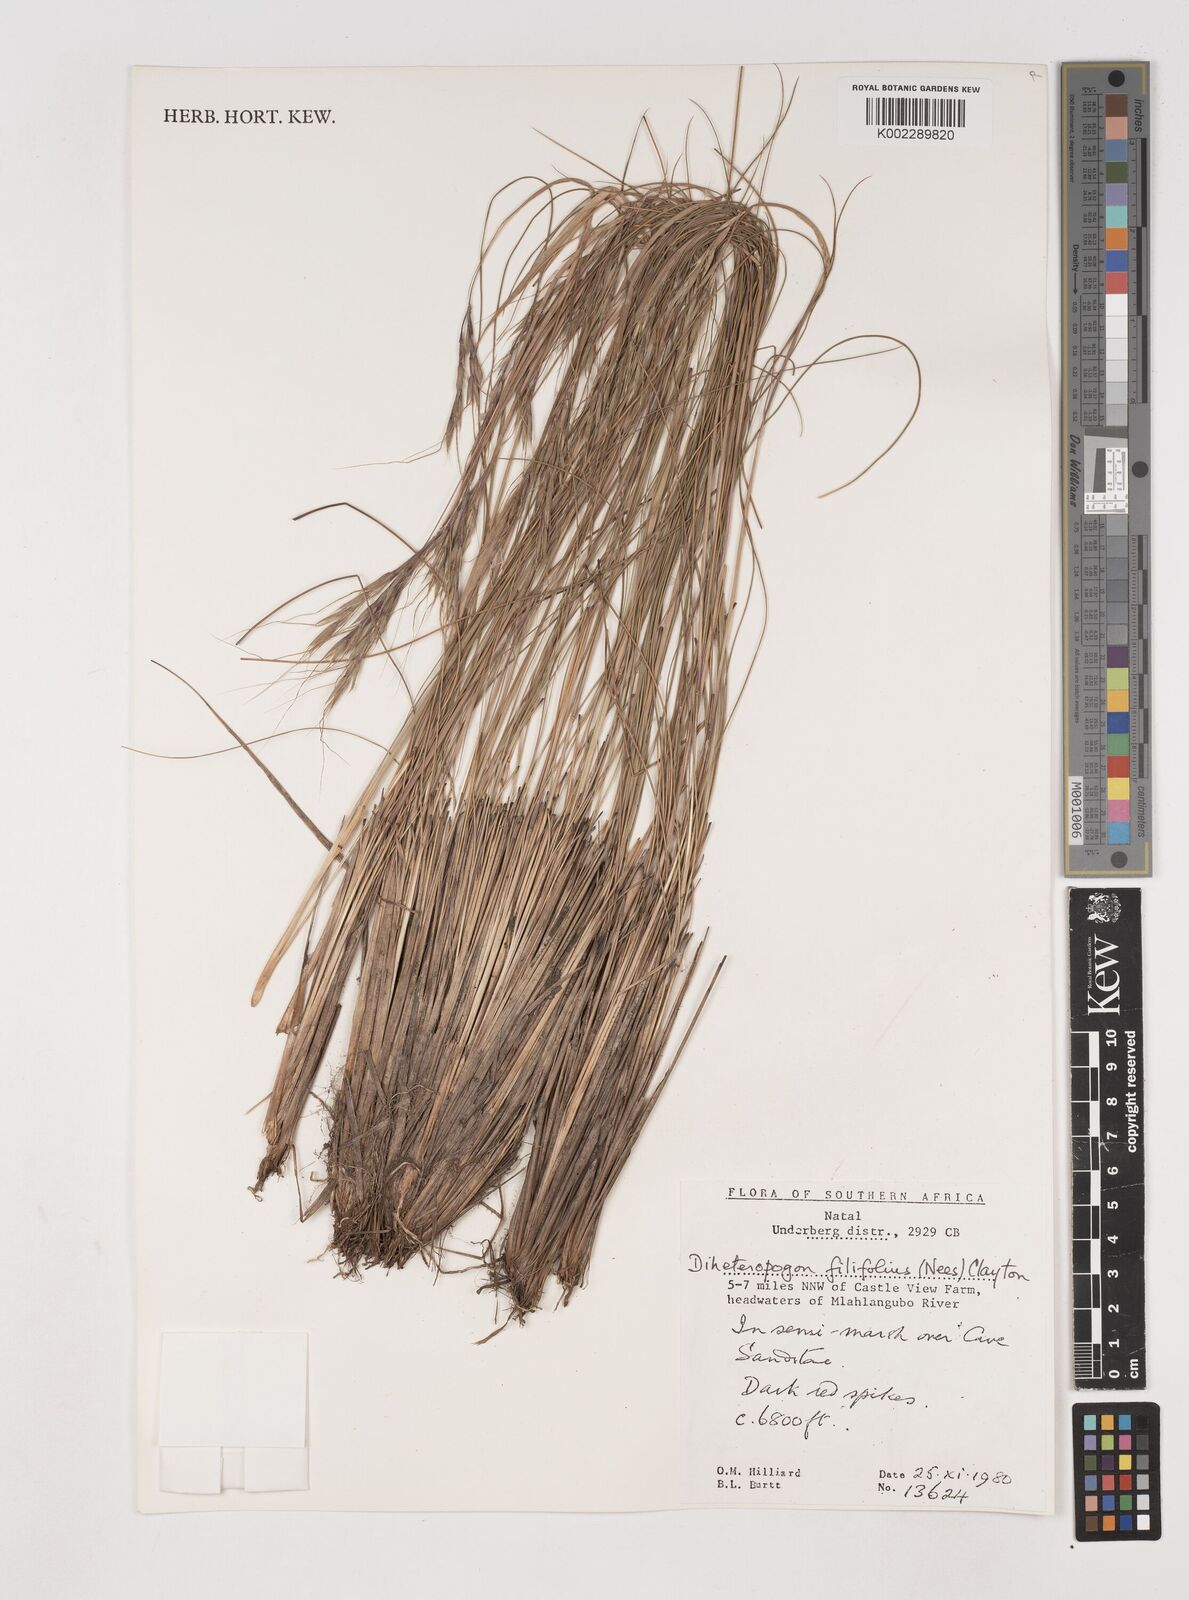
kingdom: Plantae
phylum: Tracheophyta
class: Liliopsida
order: Poales
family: Poaceae
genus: Diheteropogon
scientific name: Diheteropogon filifolius
